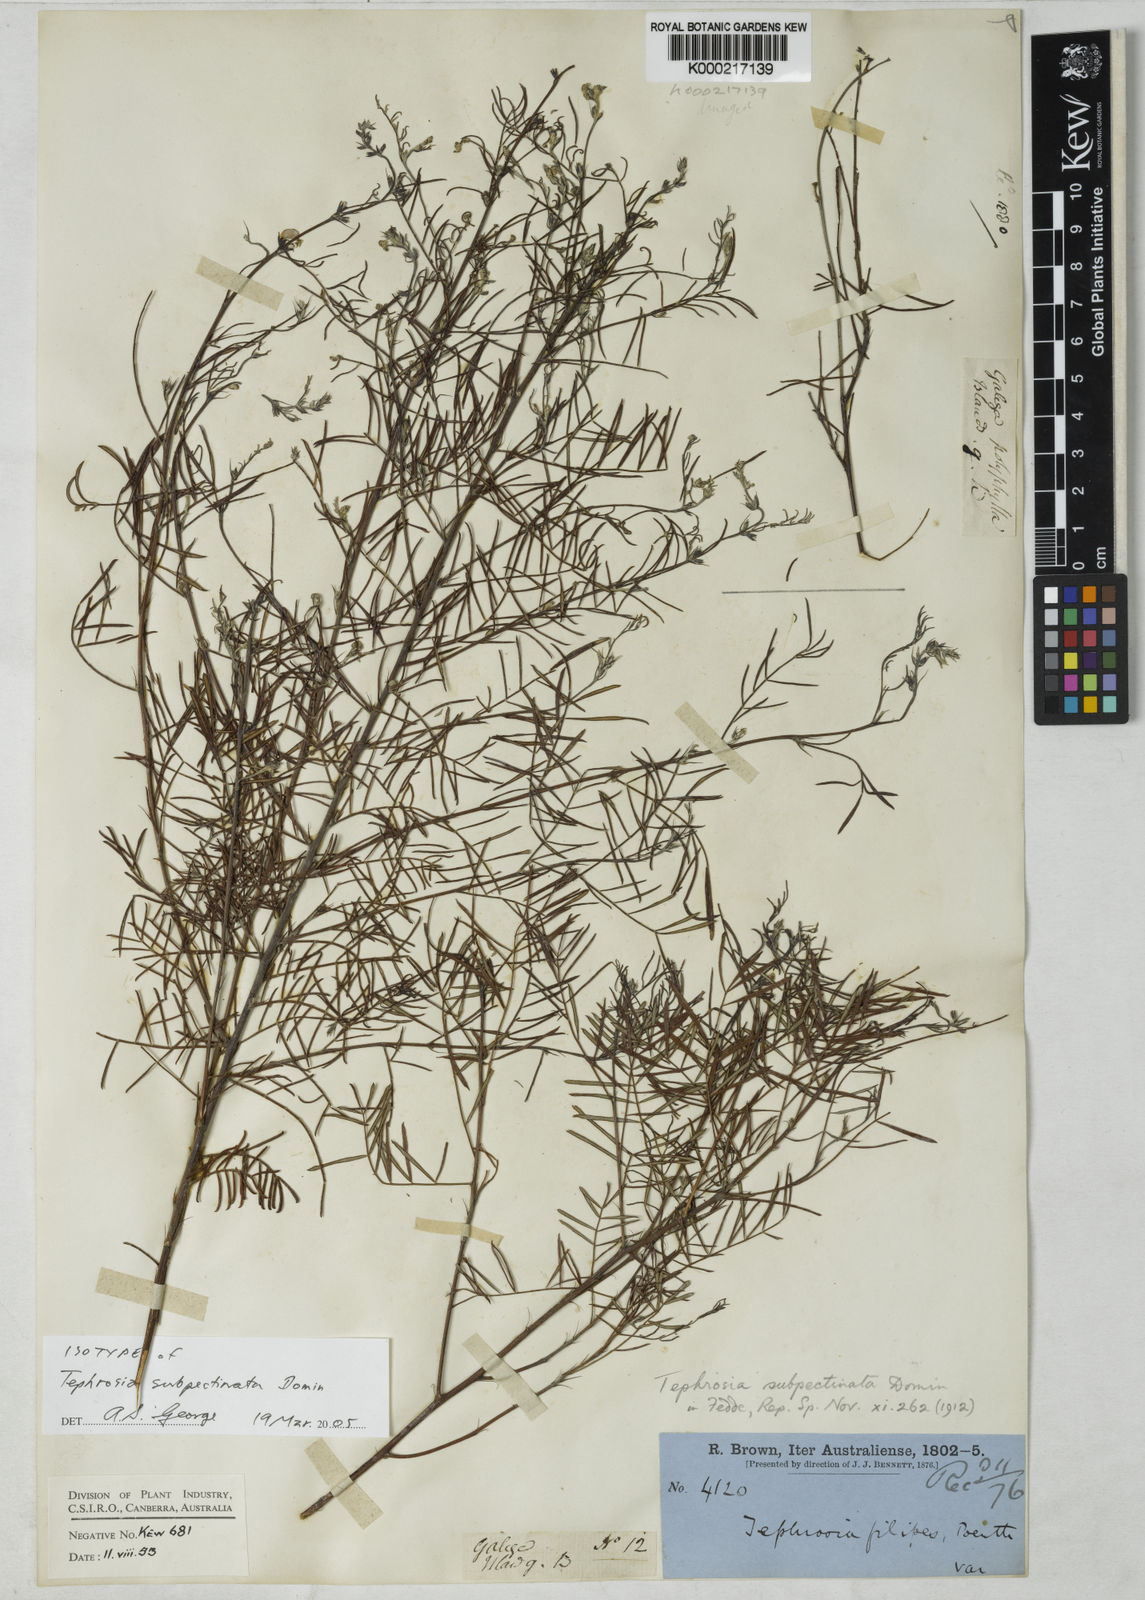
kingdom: Plantae
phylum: Tracheophyta
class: Magnoliopsida
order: Fabales
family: Fabaceae
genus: Tephrosia
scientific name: Tephrosia subpectinata
